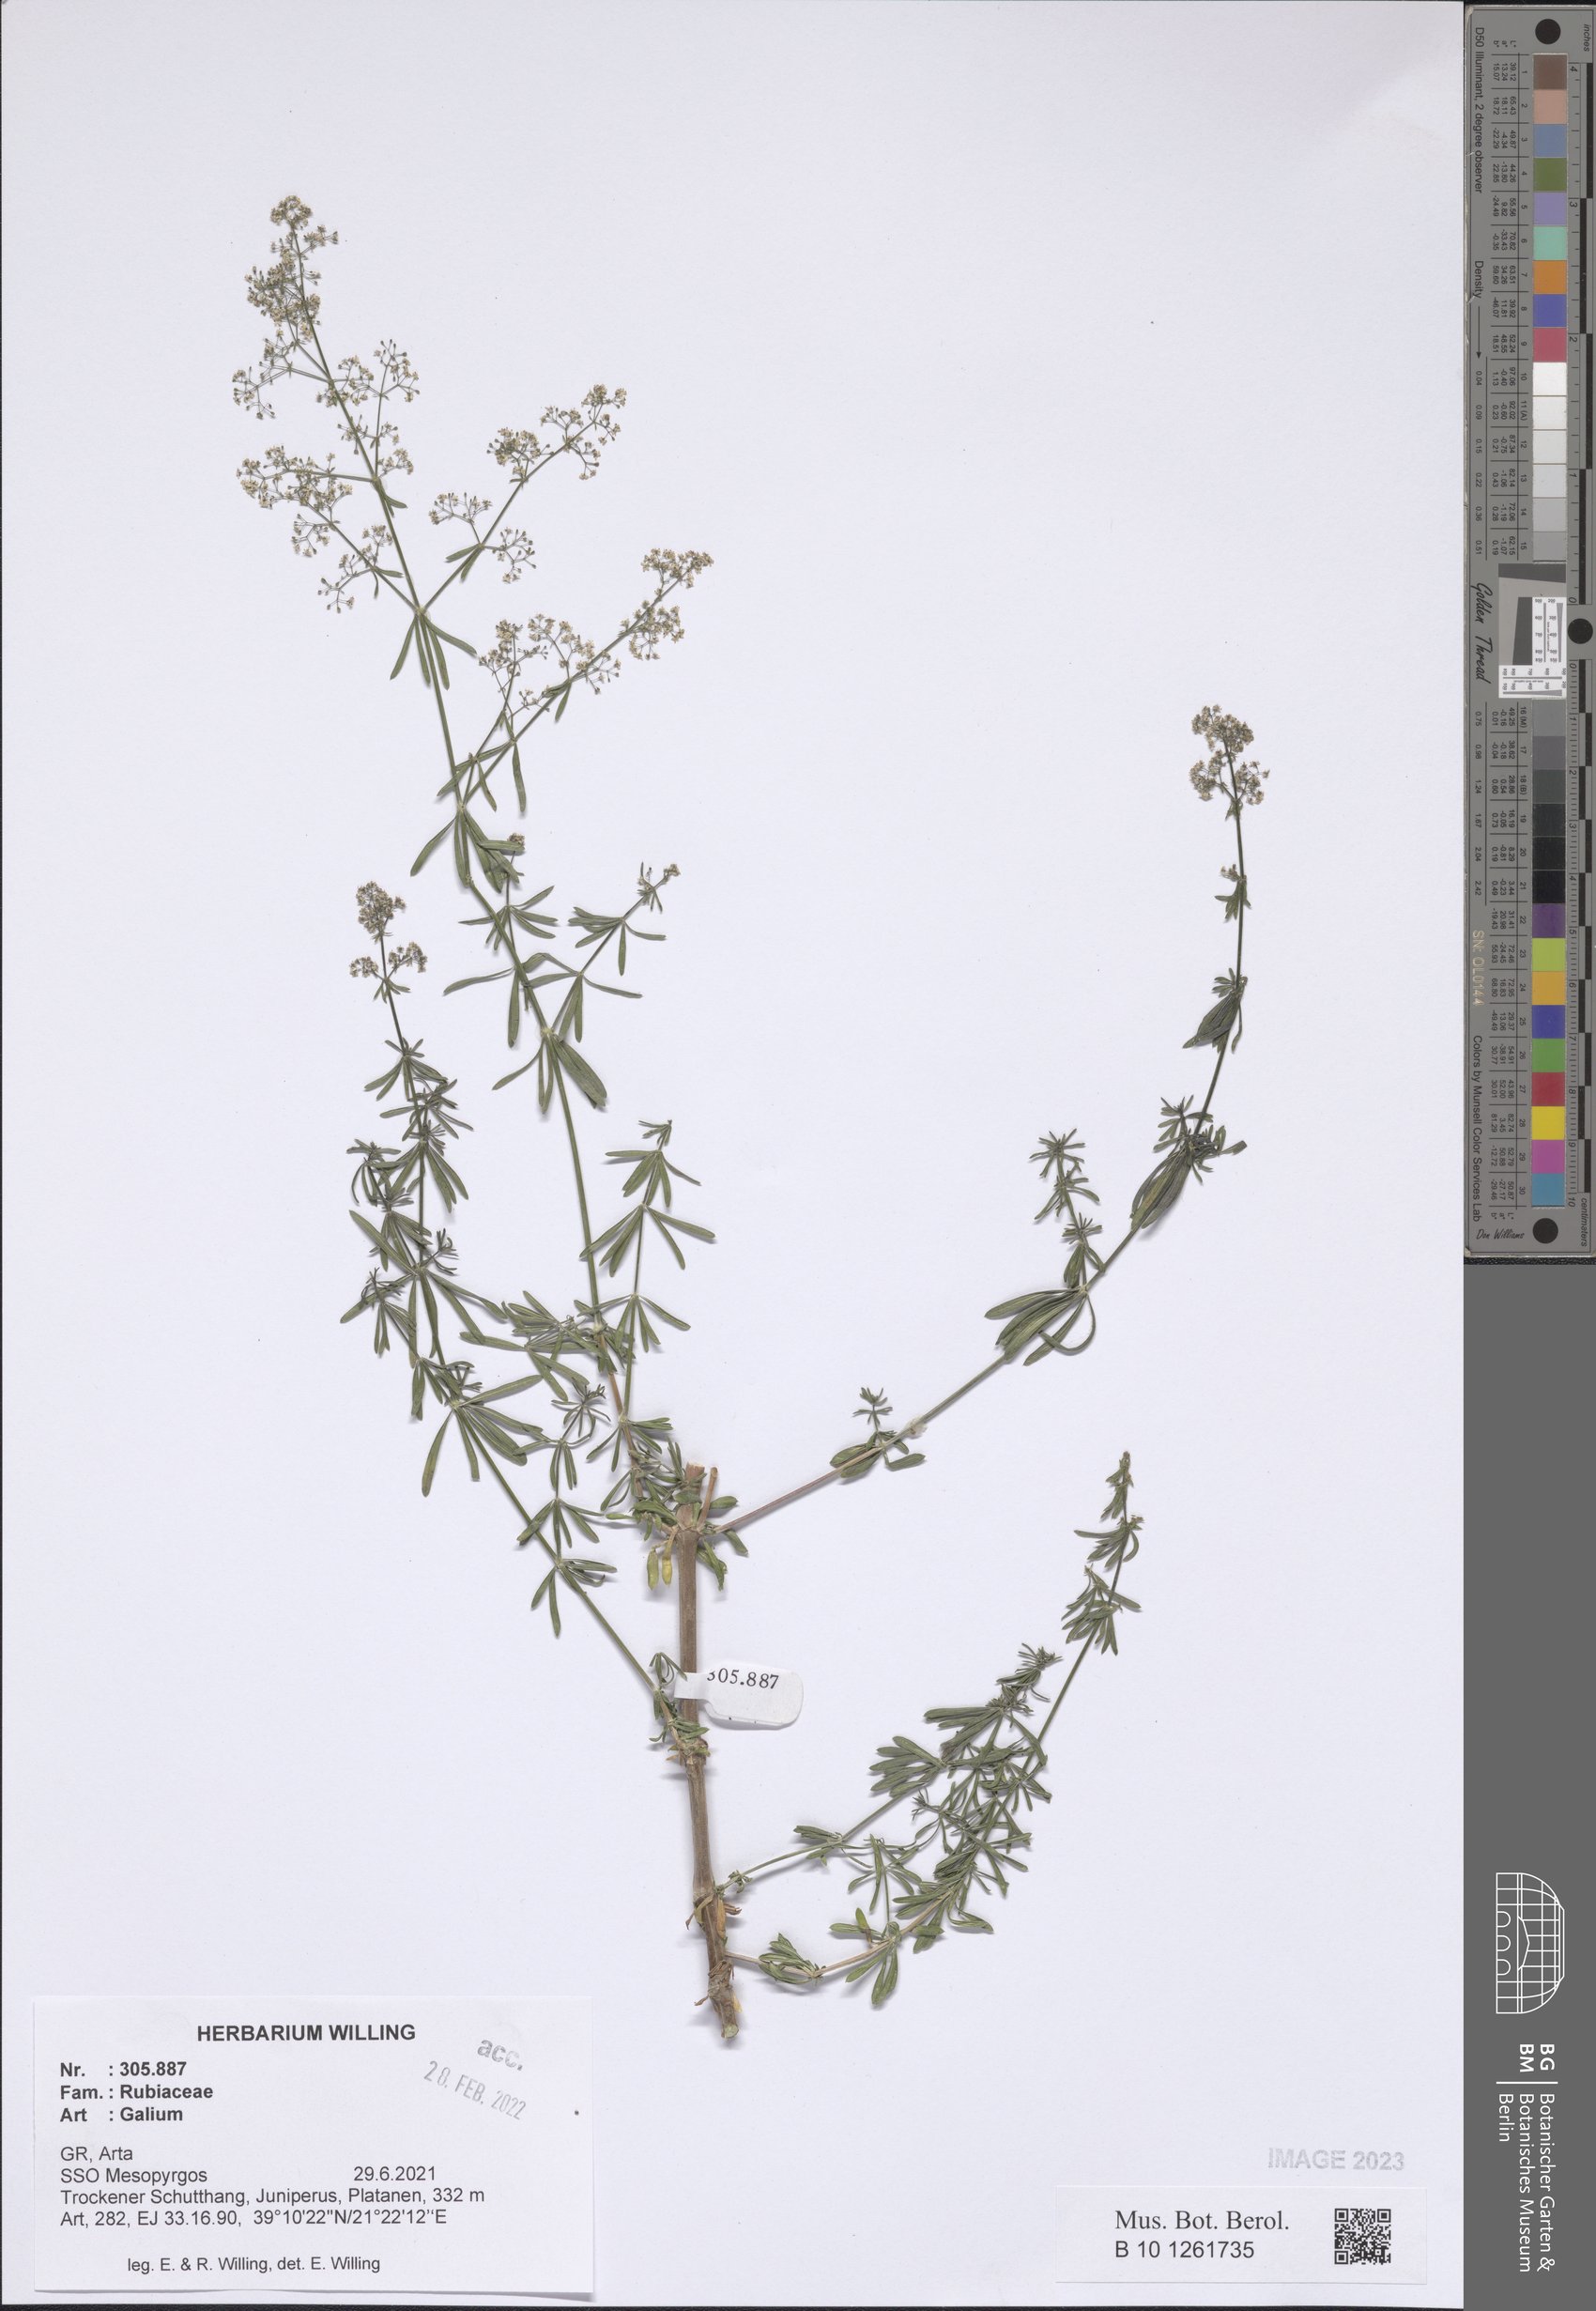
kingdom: Plantae
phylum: Tracheophyta
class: Magnoliopsida
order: Gentianales
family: Rubiaceae
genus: Galium
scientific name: Galium
